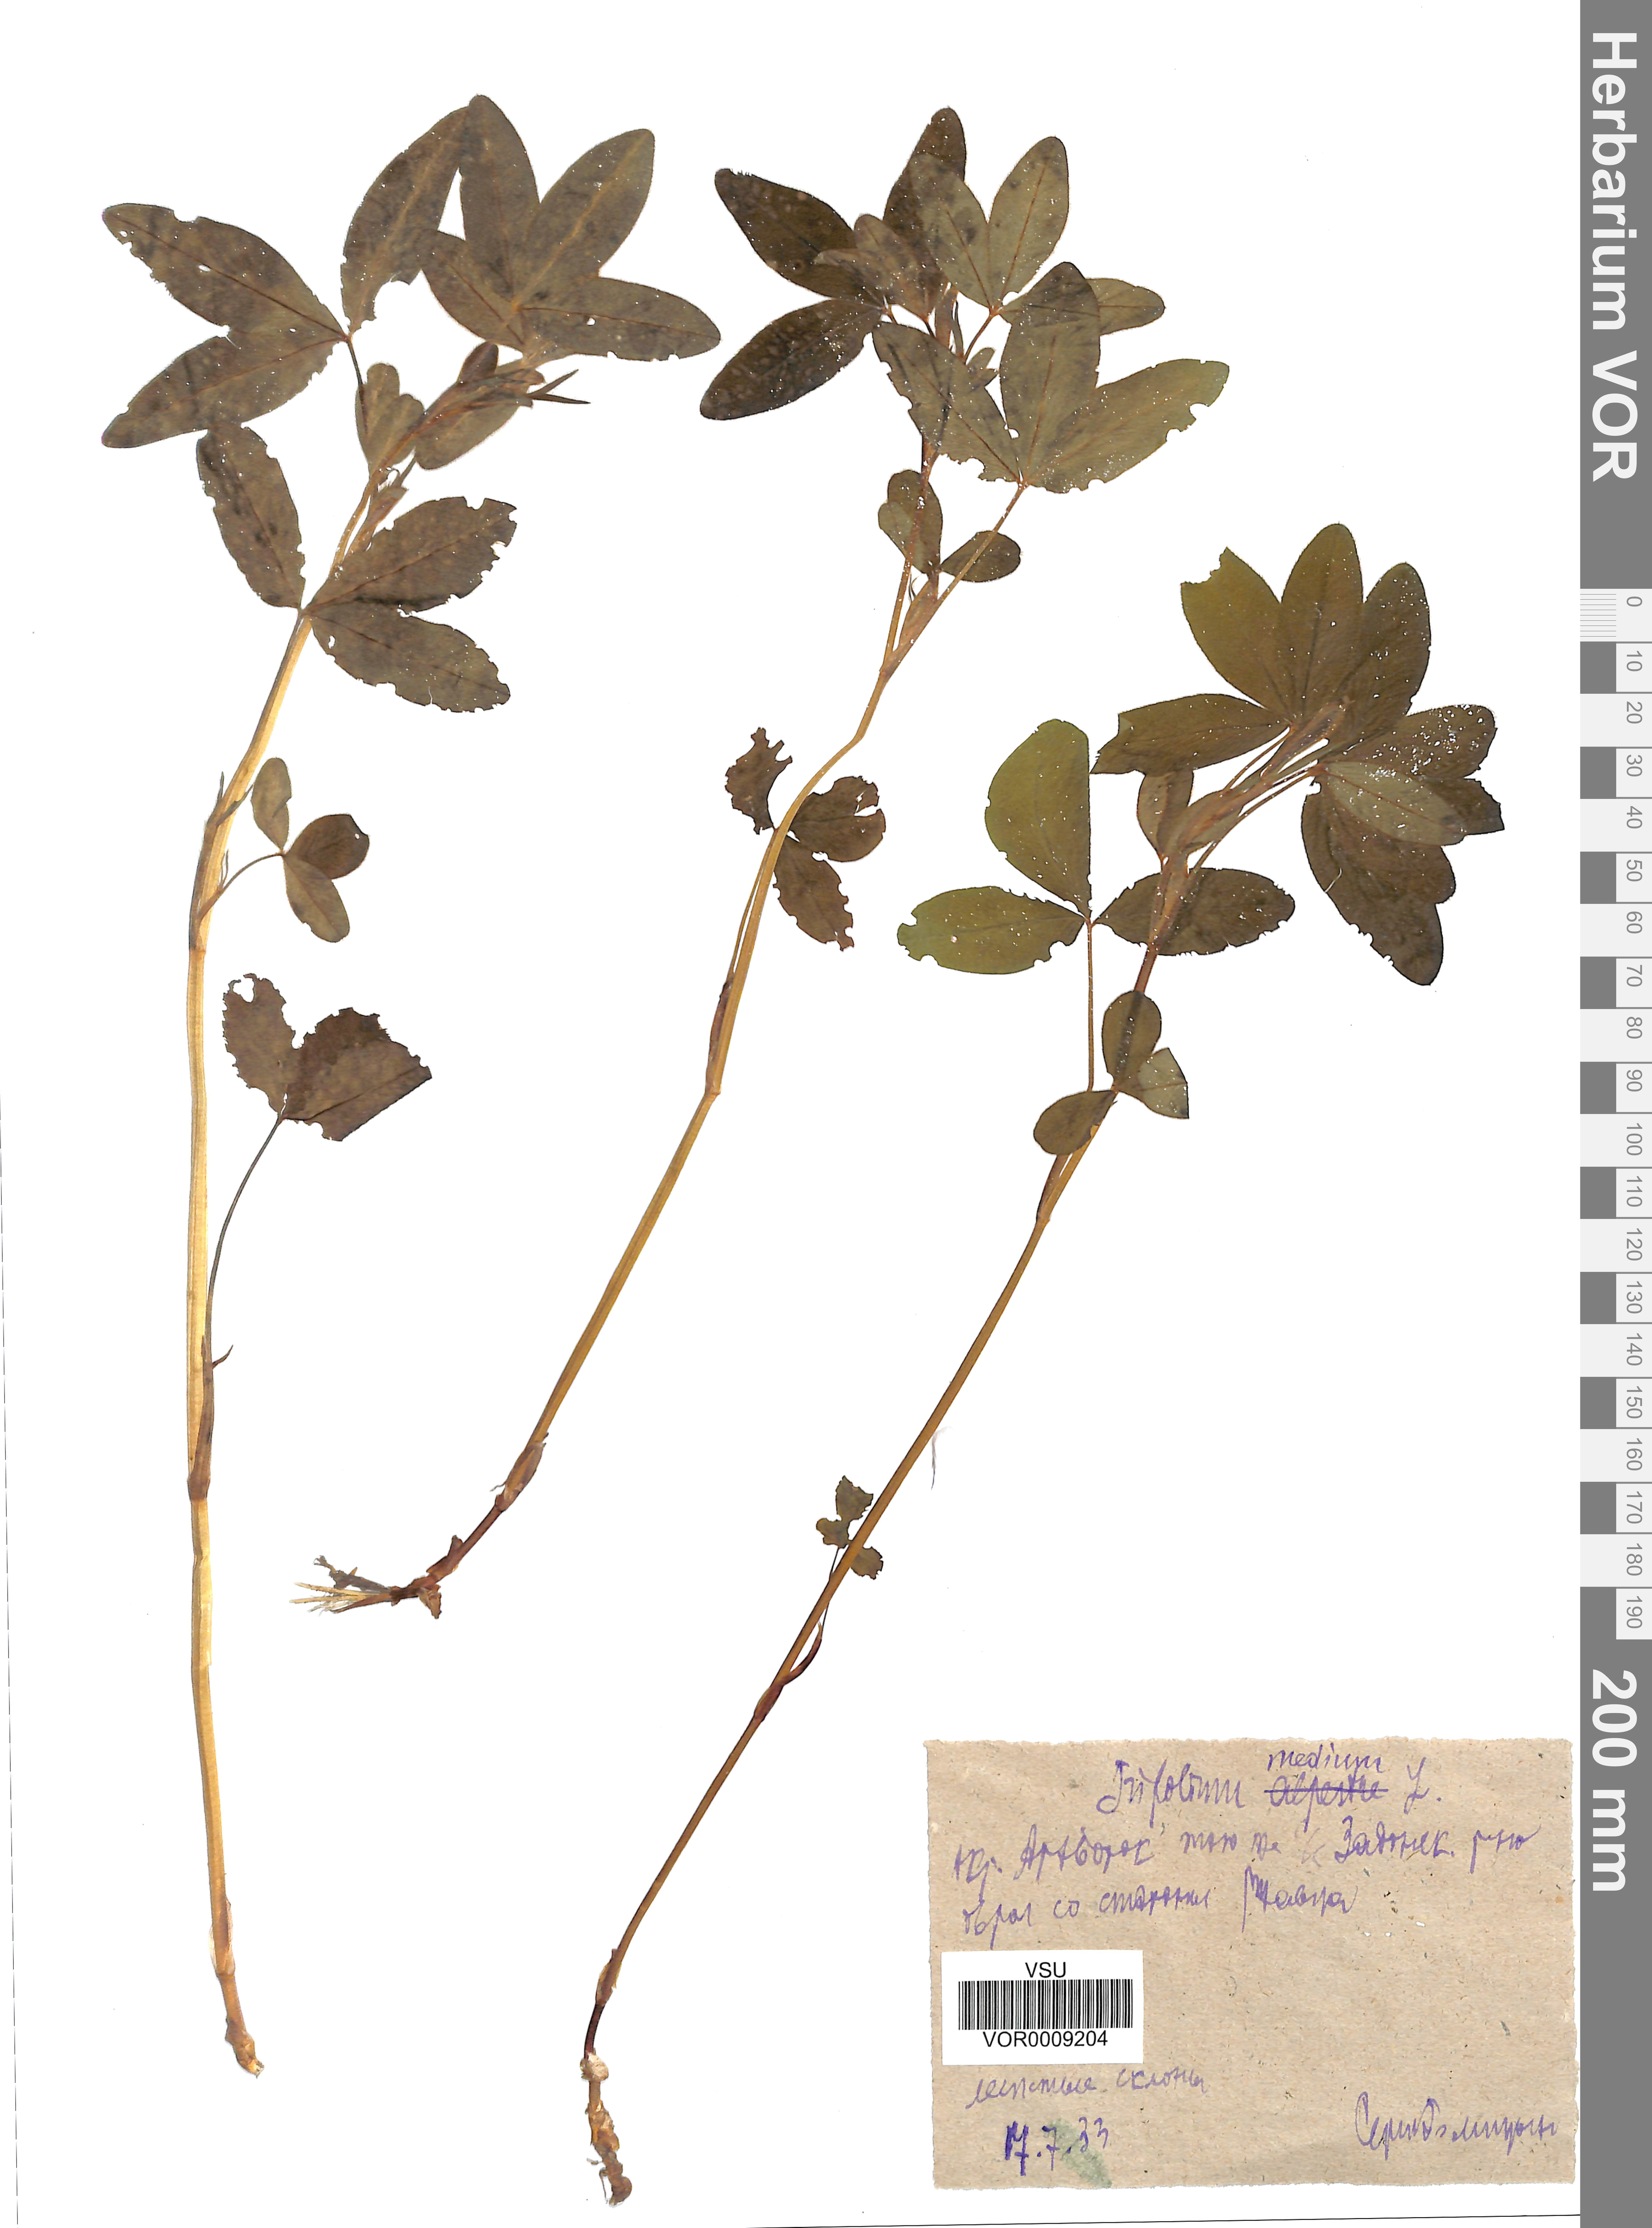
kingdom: Plantae
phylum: Tracheophyta
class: Magnoliopsida
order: Fabales
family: Fabaceae
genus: Trifolium
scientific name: Trifolium medium
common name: Zigzag clover
